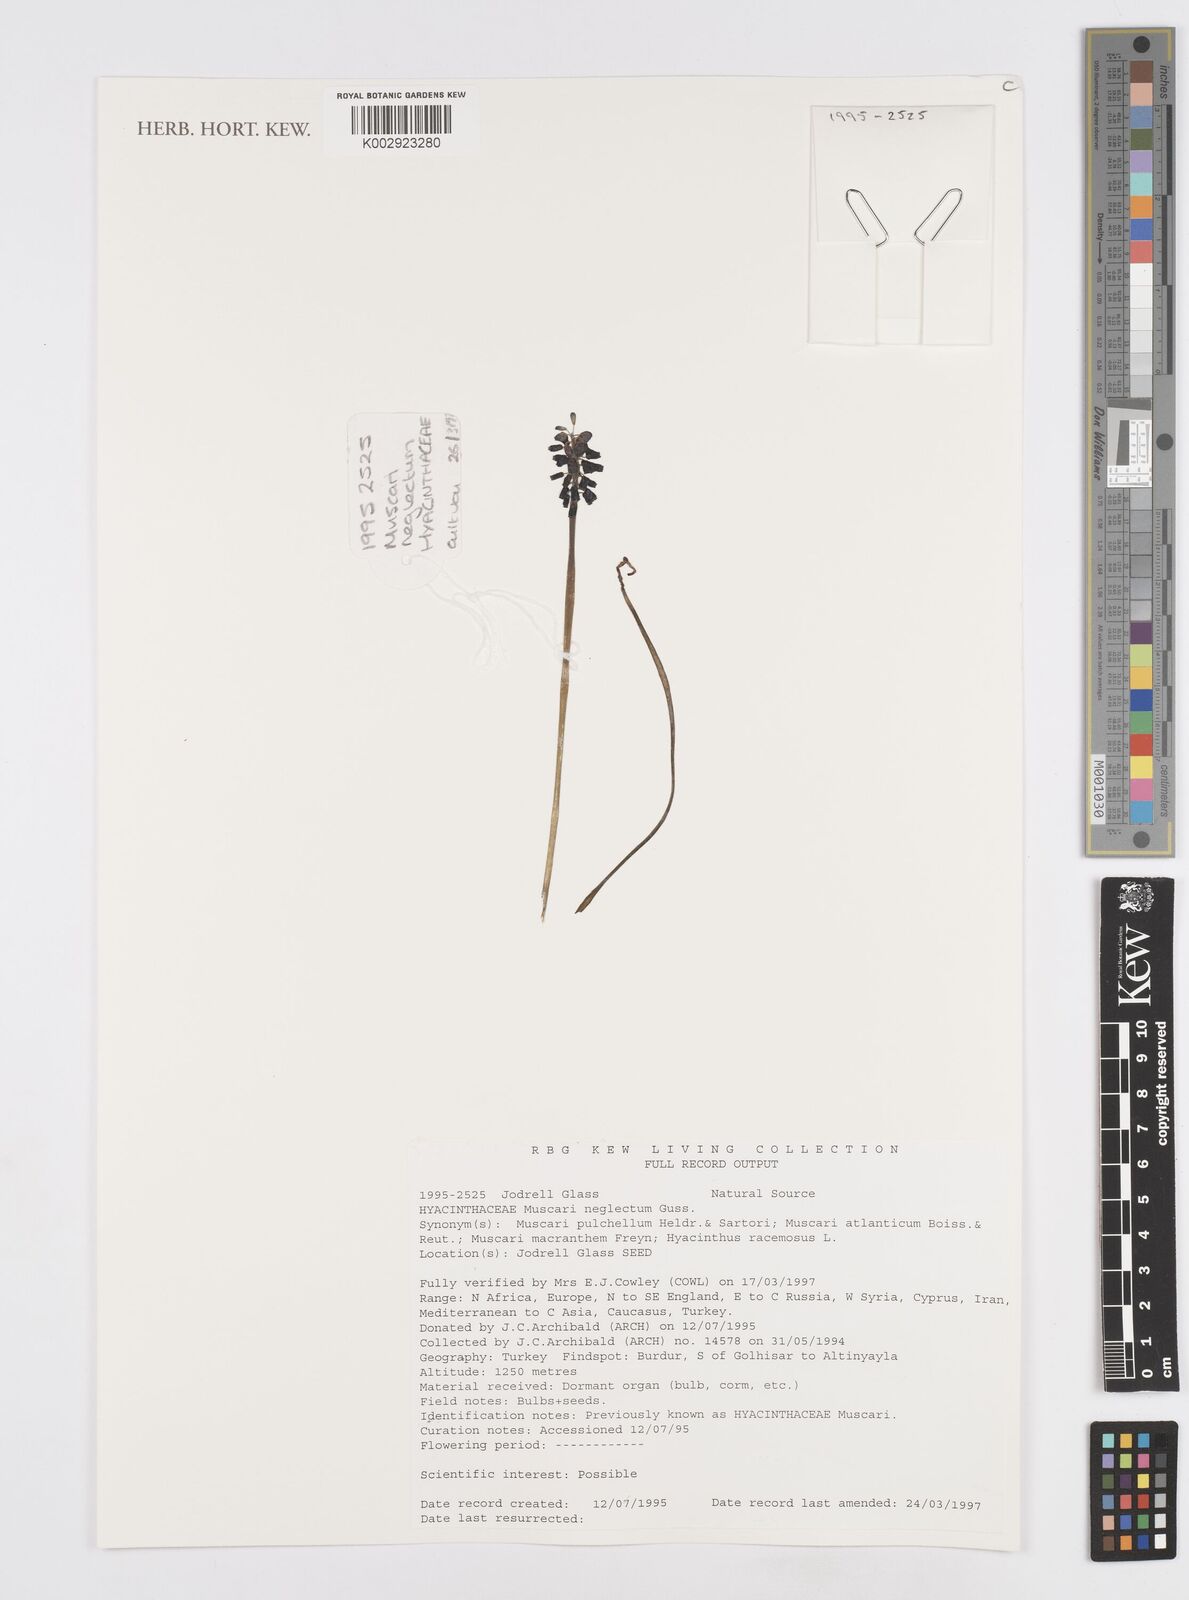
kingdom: Plantae
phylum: Tracheophyta
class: Liliopsida
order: Asparagales
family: Asparagaceae
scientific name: Asparagaceae
